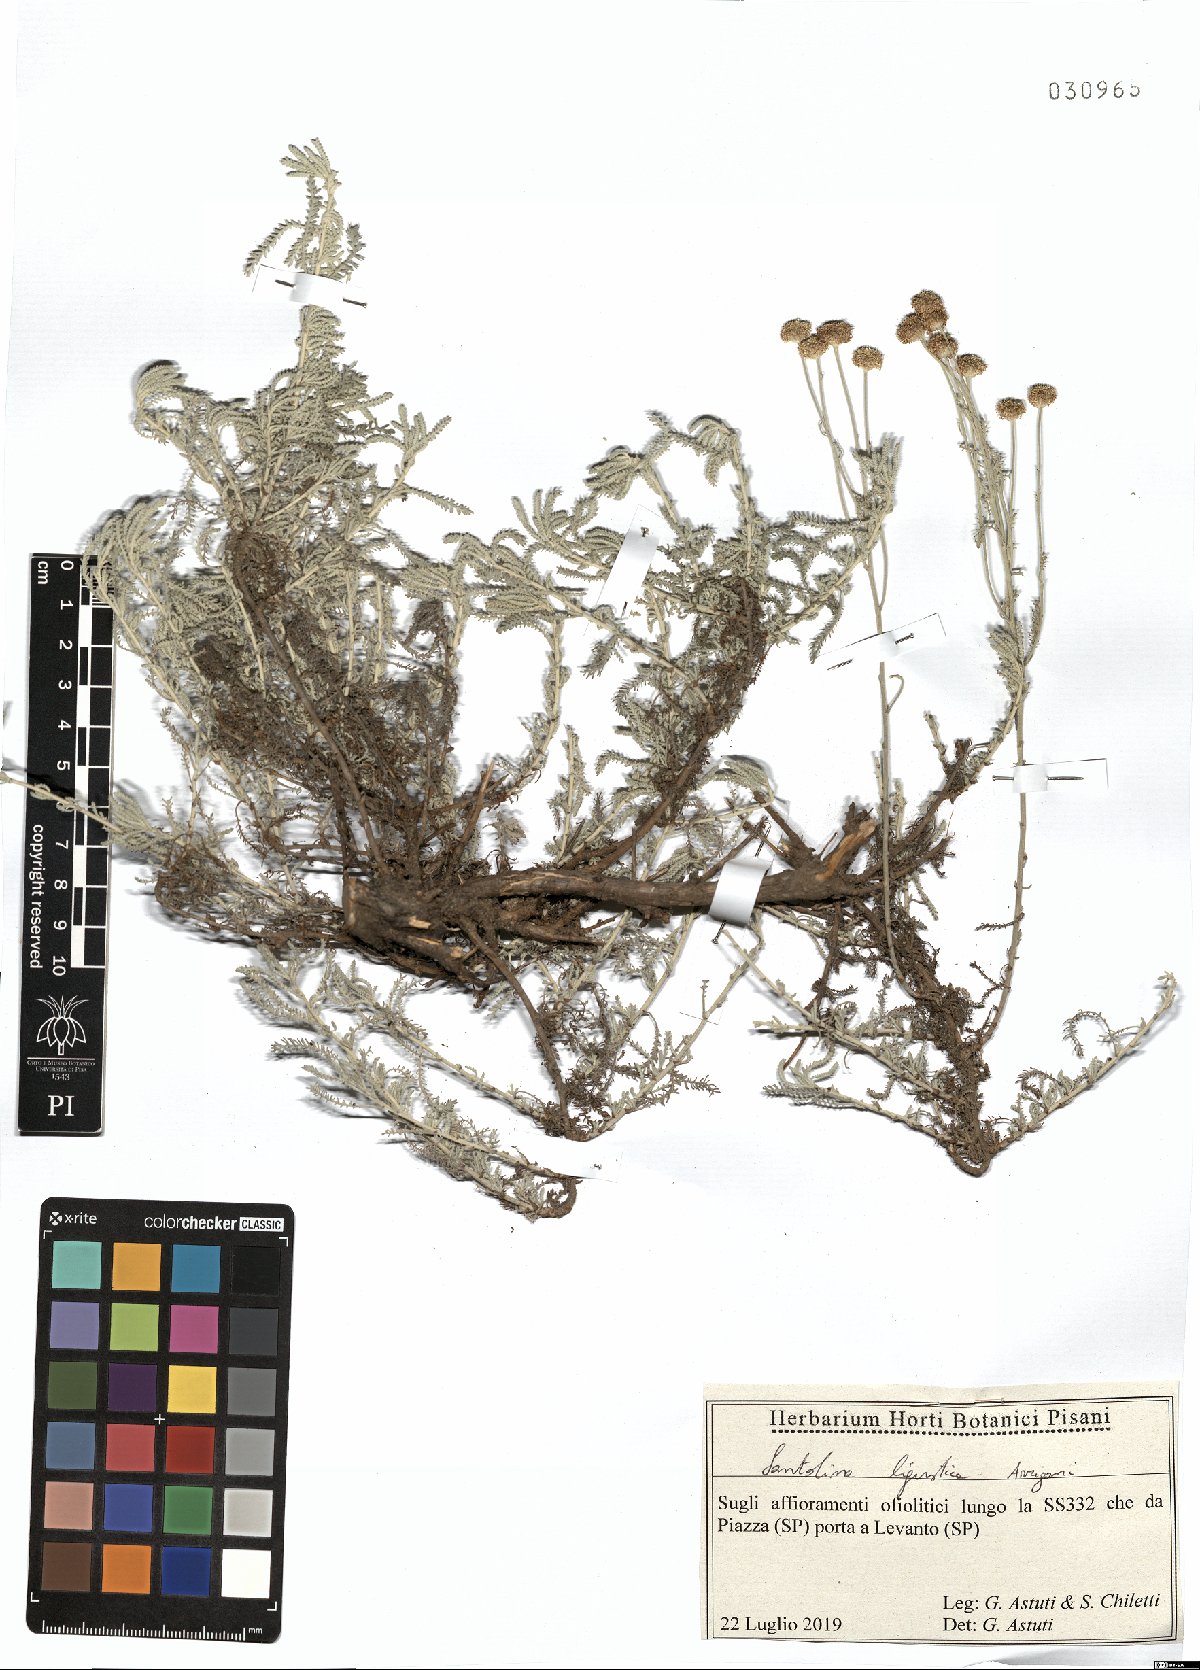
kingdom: Plantae
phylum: Tracheophyta
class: Magnoliopsida
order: Asterales
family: Asteraceae
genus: Santolina
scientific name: Santolina ligustica
